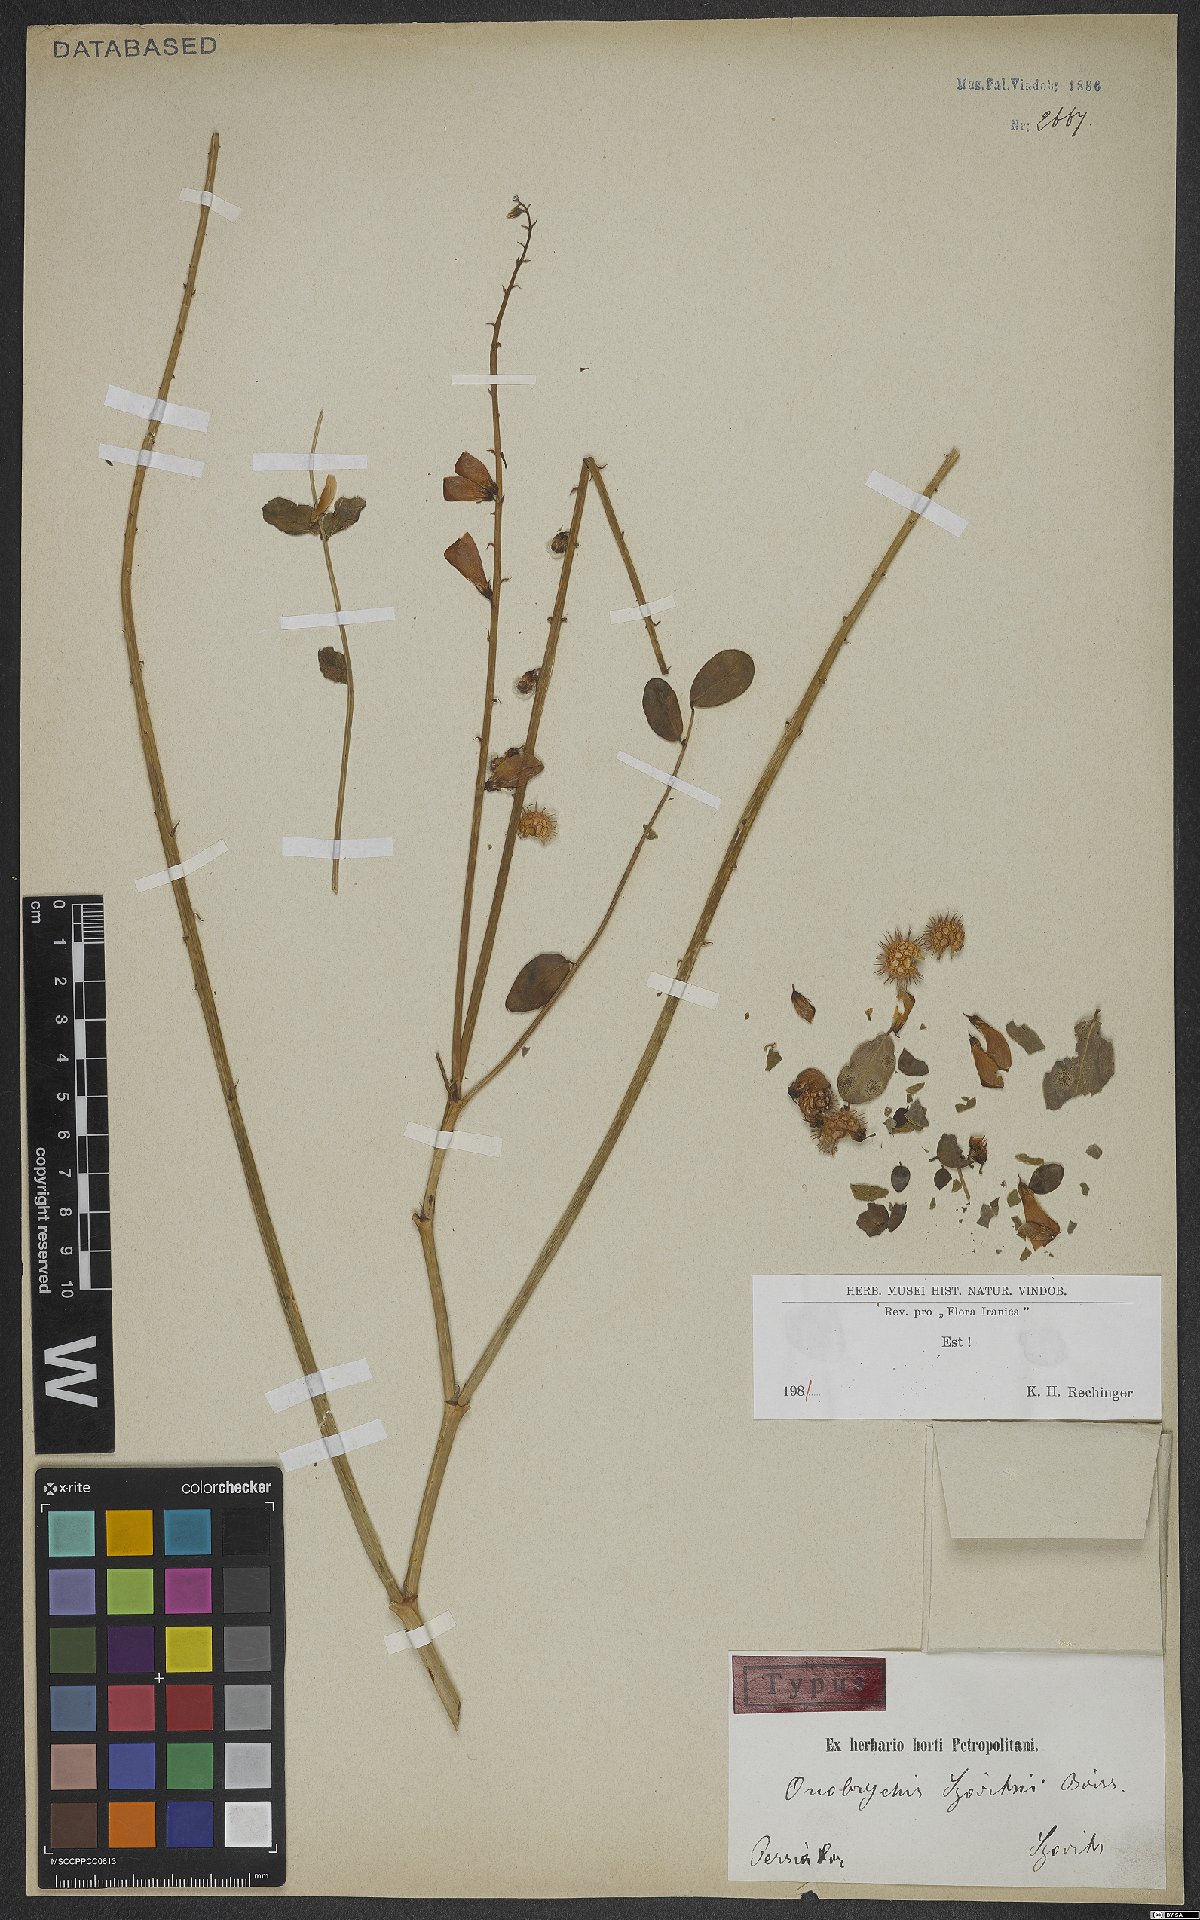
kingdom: Plantae
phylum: Tracheophyta
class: Magnoliopsida
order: Fabales
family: Fabaceae
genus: Onobrychis
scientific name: Onobrychis szovitsii
